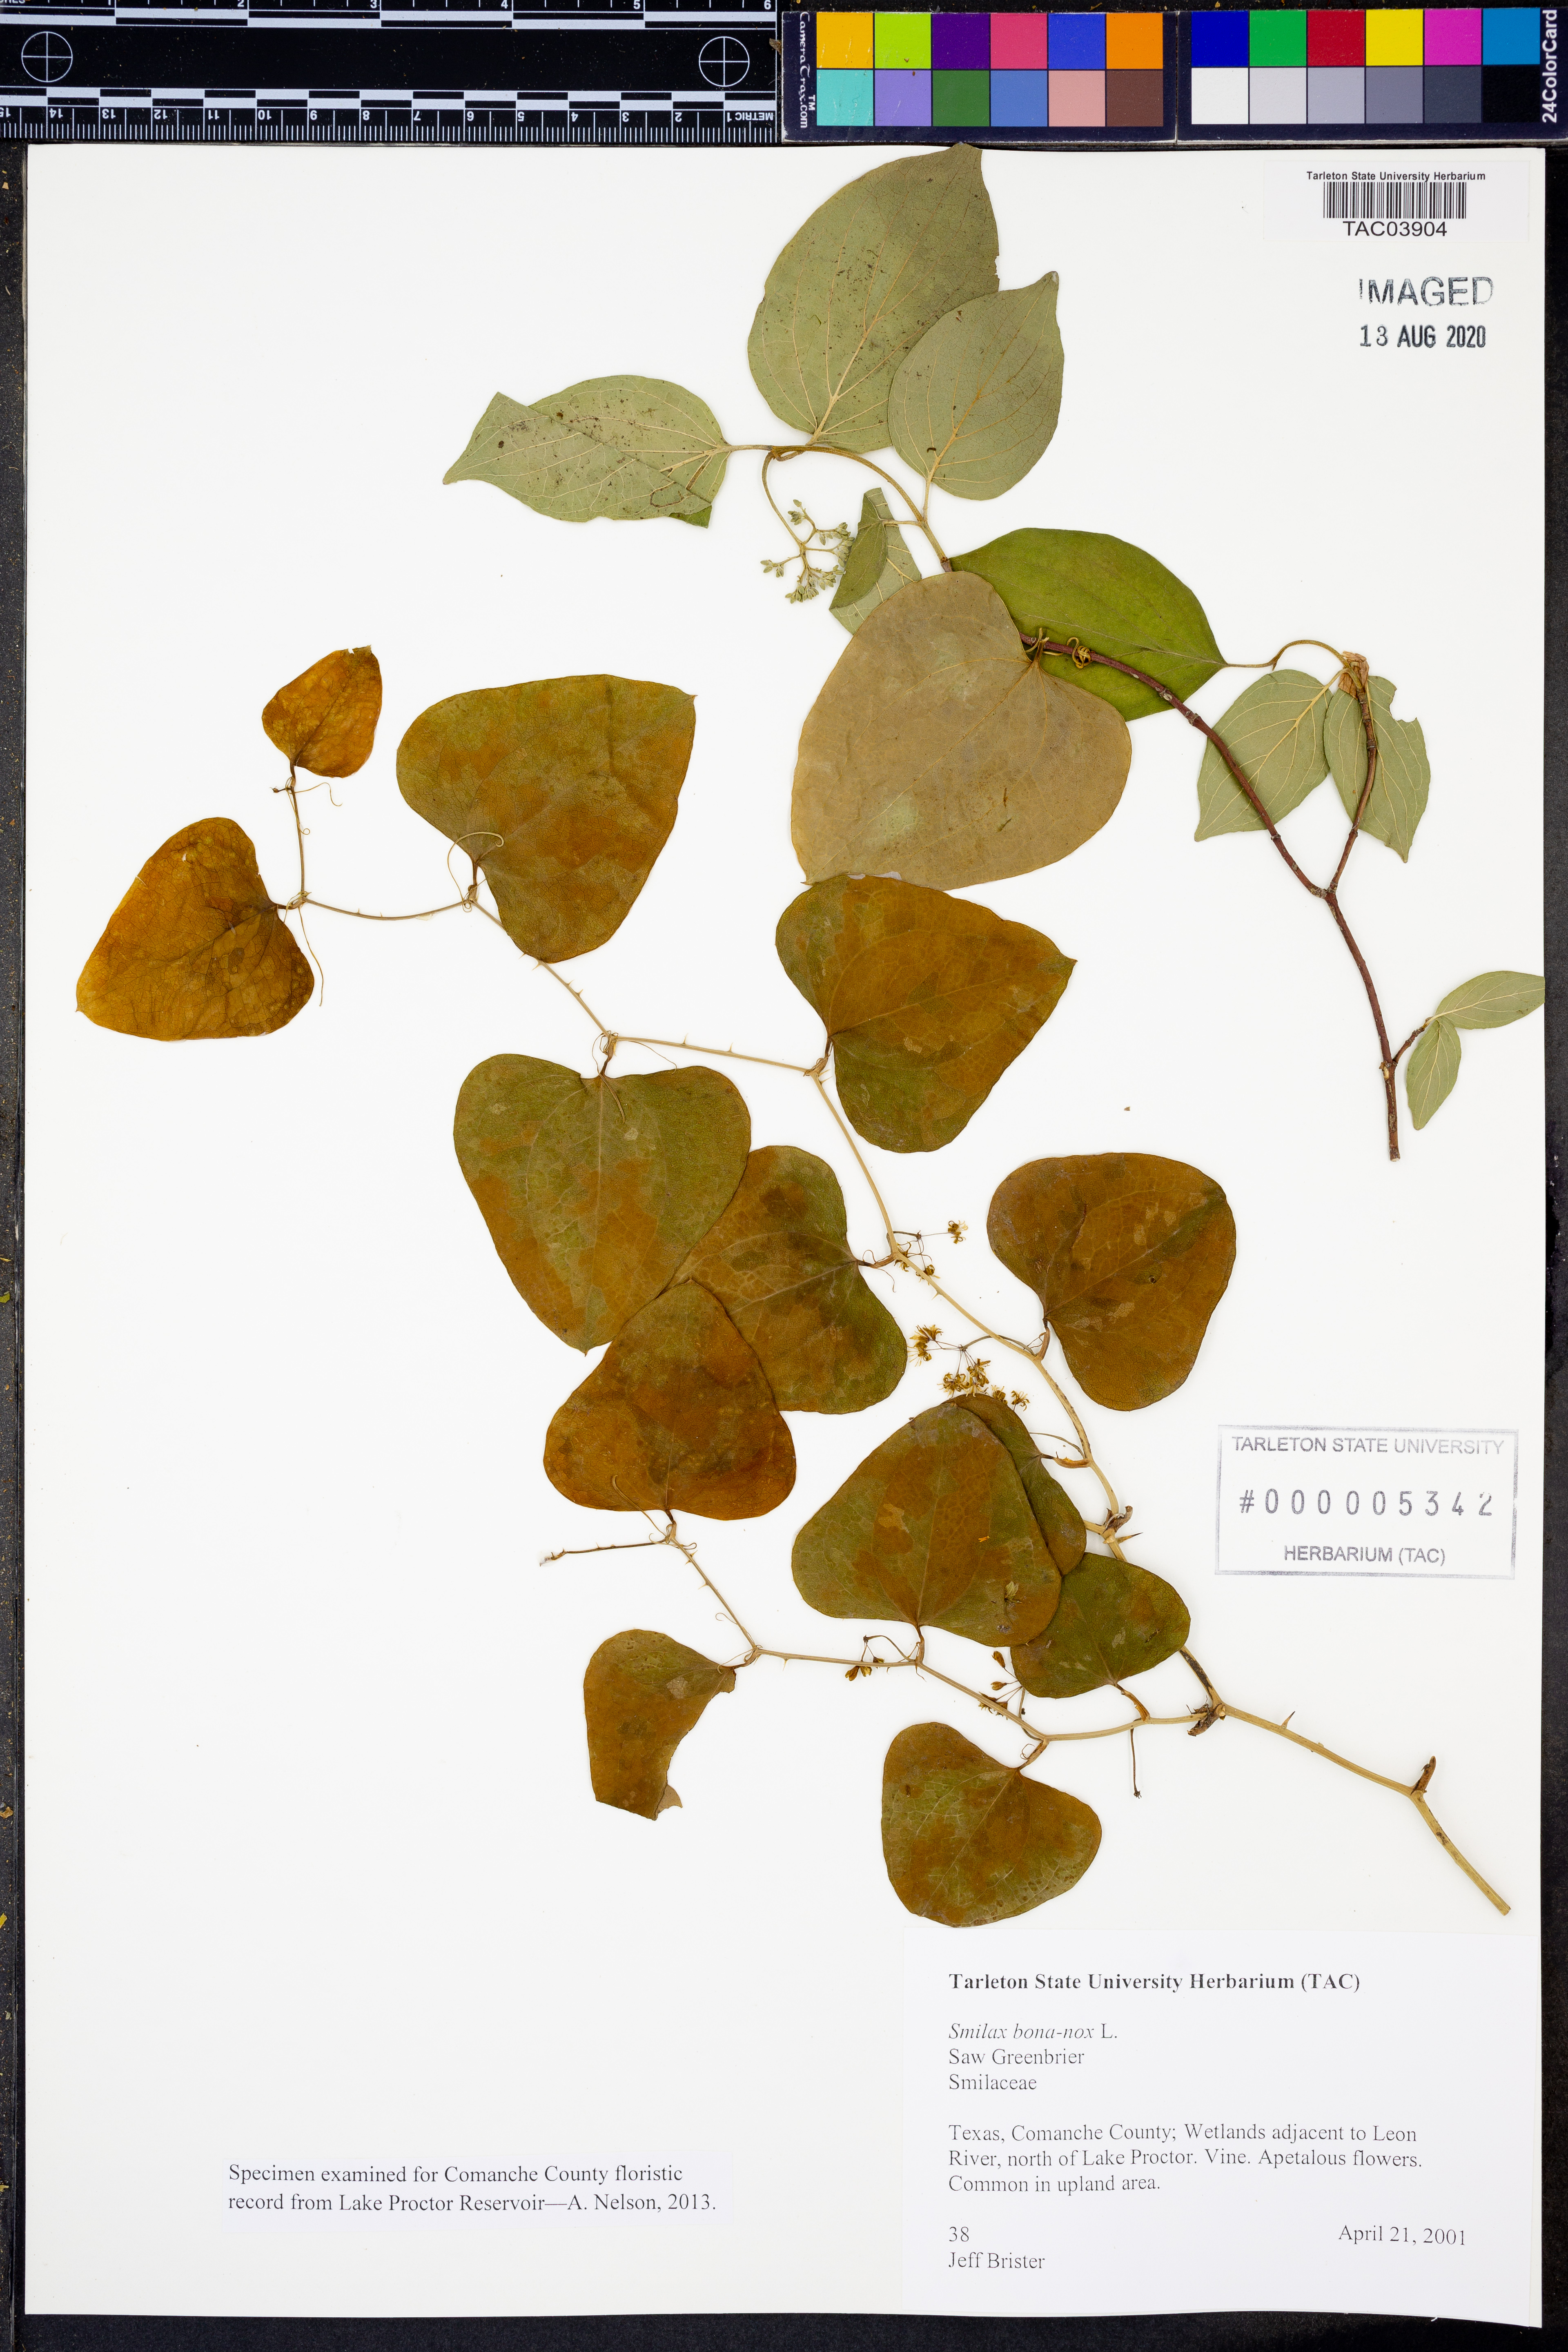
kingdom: Plantae
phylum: Tracheophyta
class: Liliopsida
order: Liliales
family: Smilacaceae
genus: Smilax
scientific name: Smilax bona-nox
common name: Catbrier
